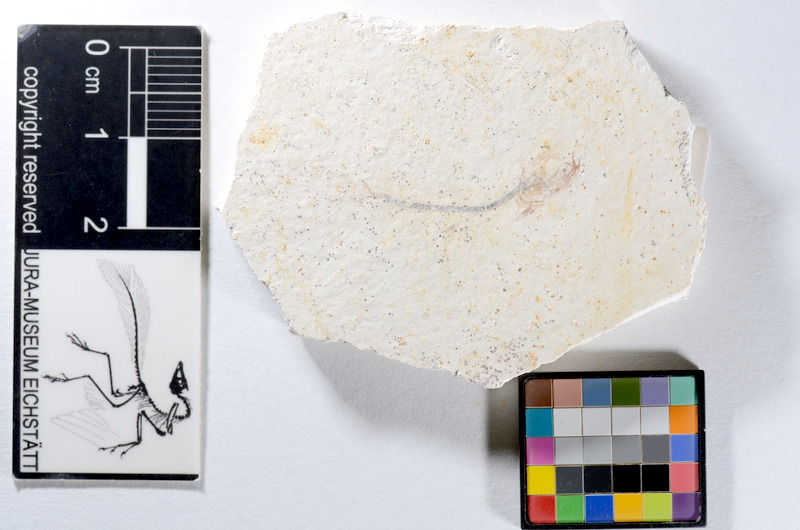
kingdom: Animalia
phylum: Chordata
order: Salmoniformes
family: Orthogonikleithridae
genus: Orthogonikleithrus
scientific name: Orthogonikleithrus hoelli
